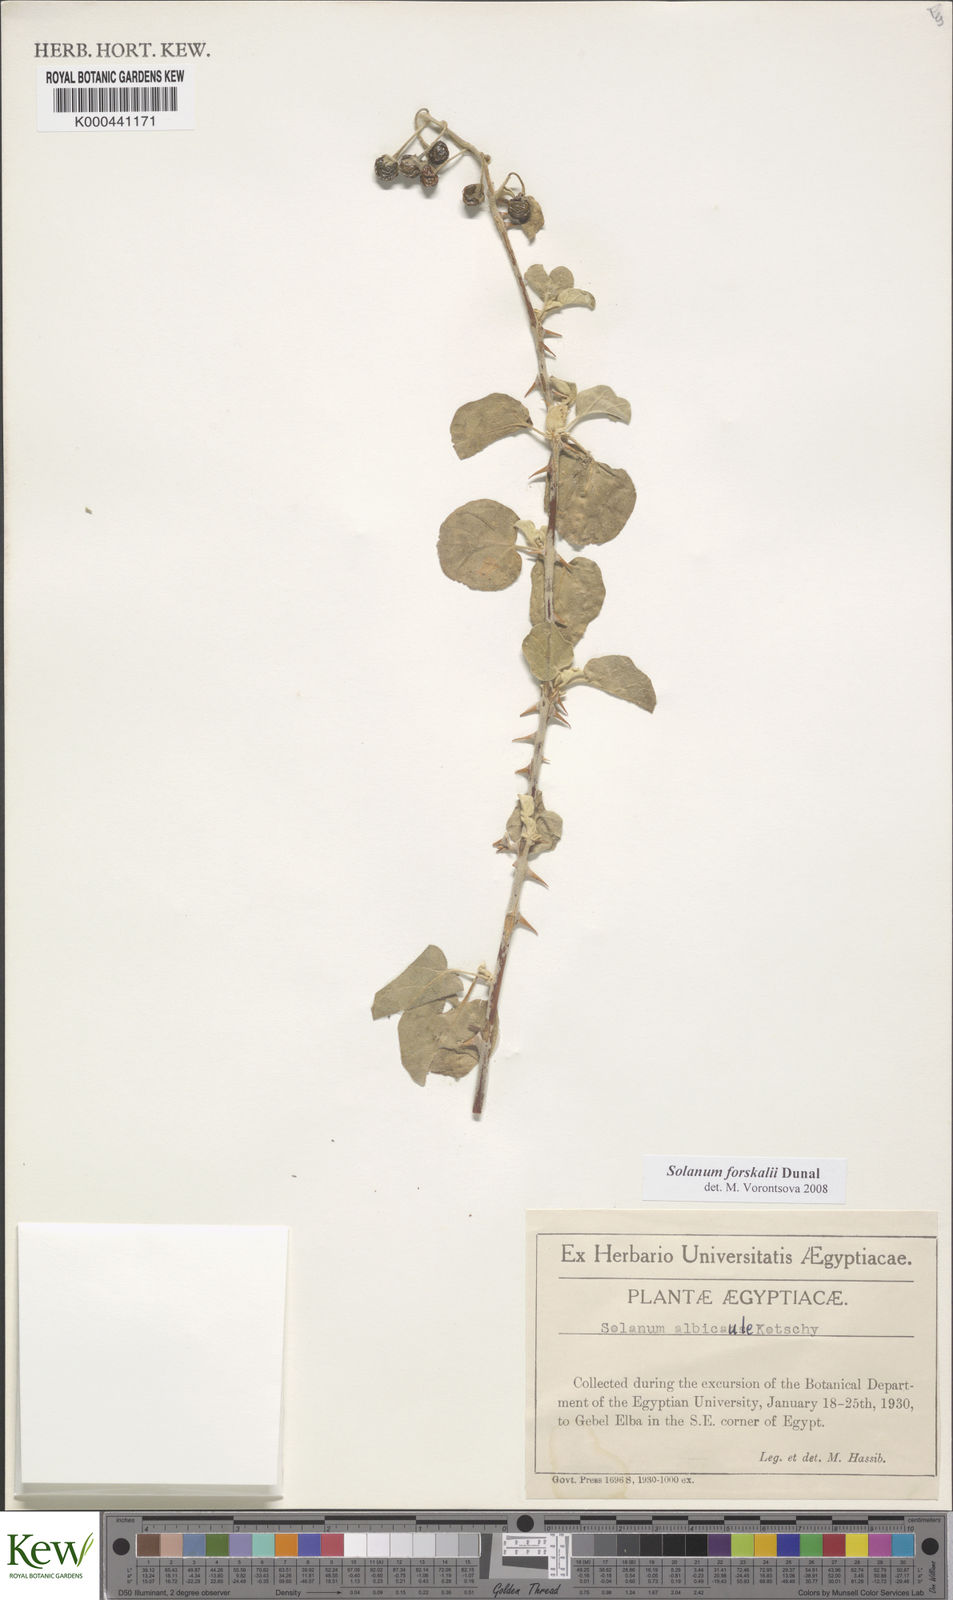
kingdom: Plantae
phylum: Tracheophyta
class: Magnoliopsida
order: Solanales
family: Solanaceae
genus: Solanum
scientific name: Solanum
